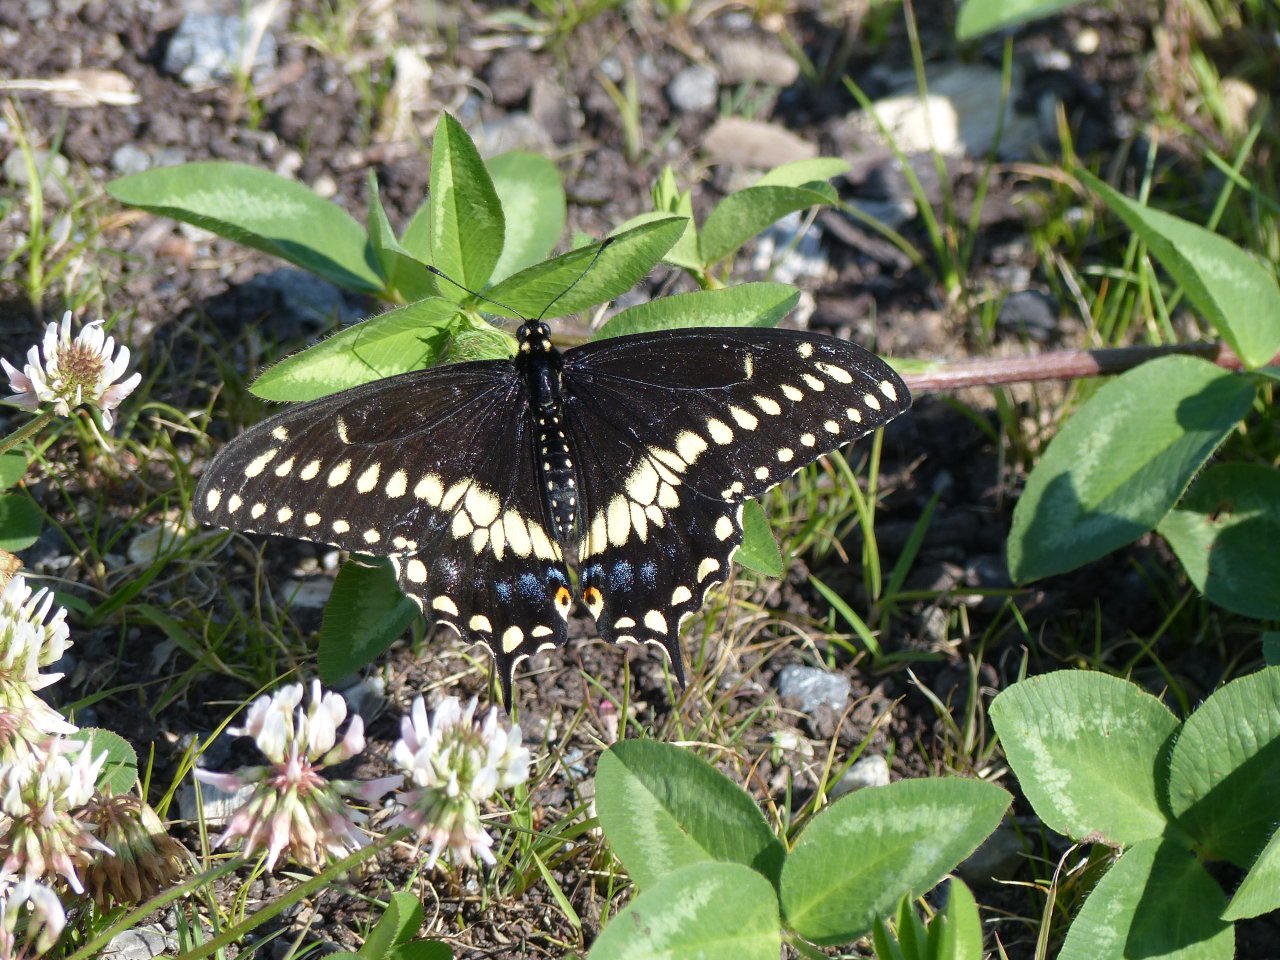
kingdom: Animalia
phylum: Arthropoda
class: Insecta
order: Lepidoptera
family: Papilionidae
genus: Papilio
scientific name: Papilio polyxenes
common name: Black Swallowtail
